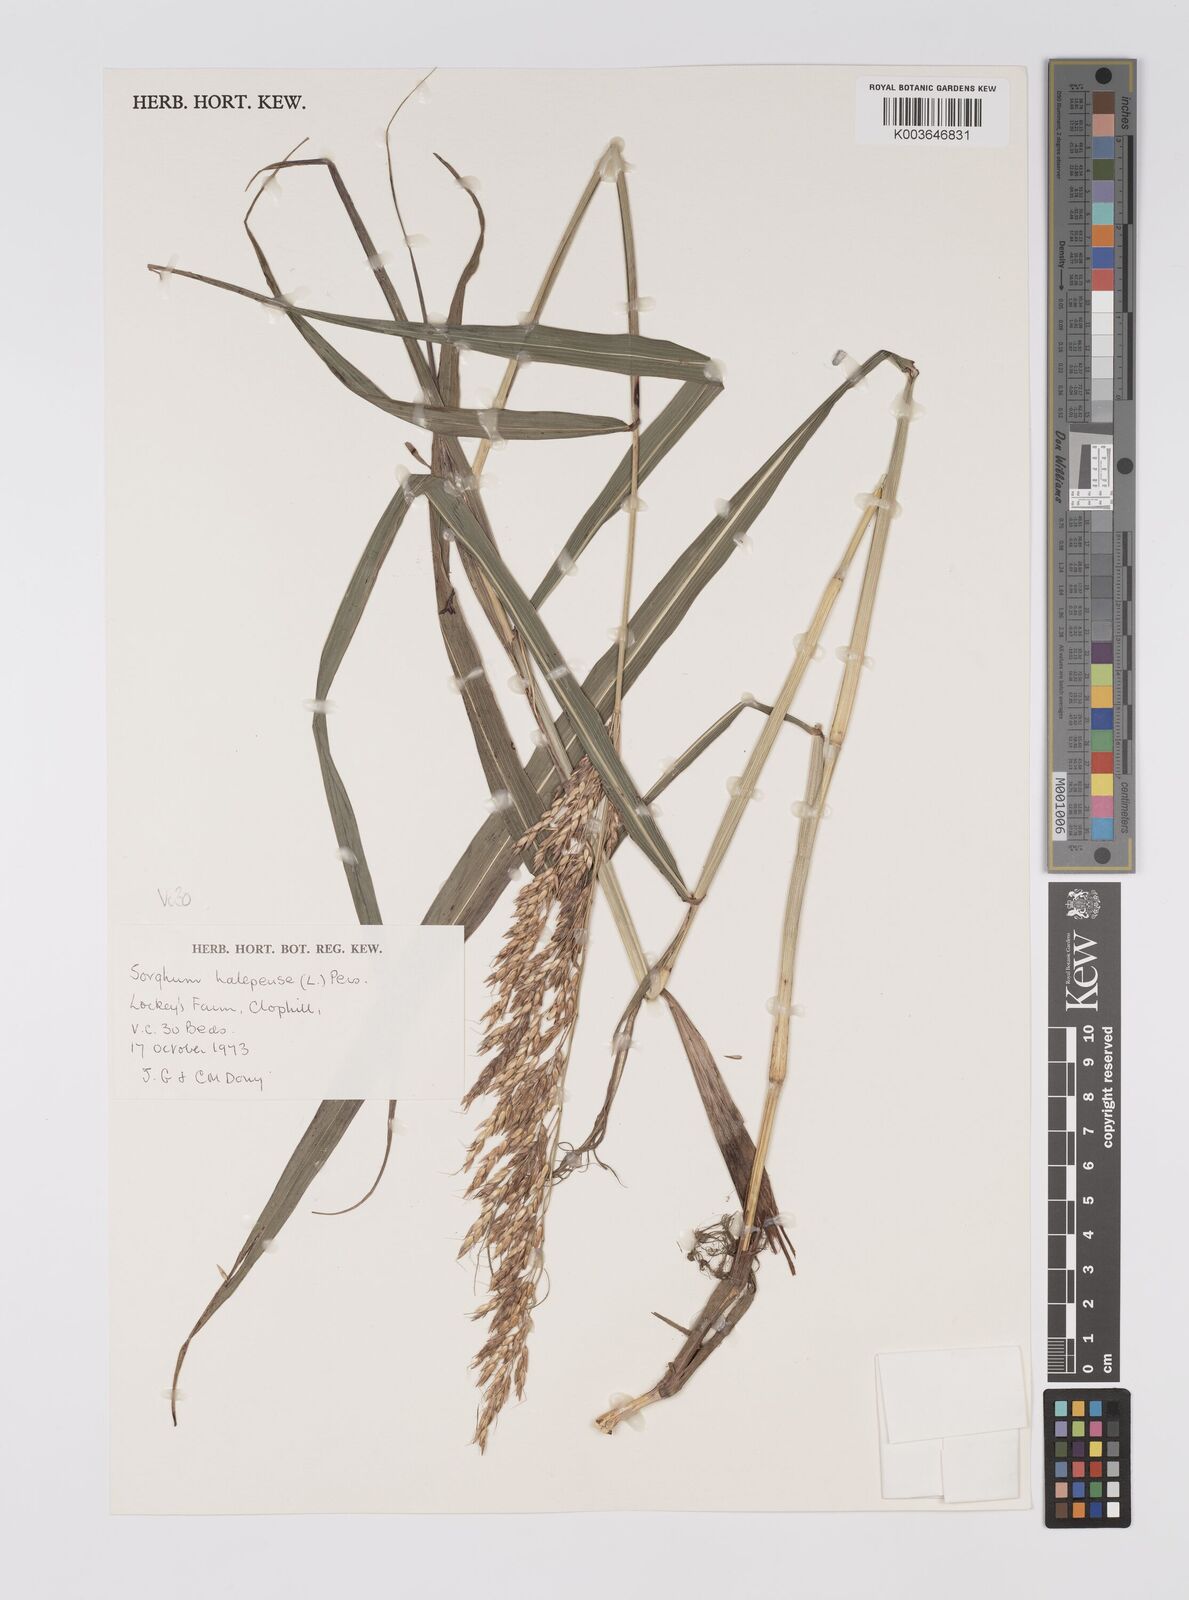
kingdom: Plantae
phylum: Tracheophyta
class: Liliopsida
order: Poales
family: Poaceae
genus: Sorghum
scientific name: Sorghum halepense
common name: Johnson-grass
